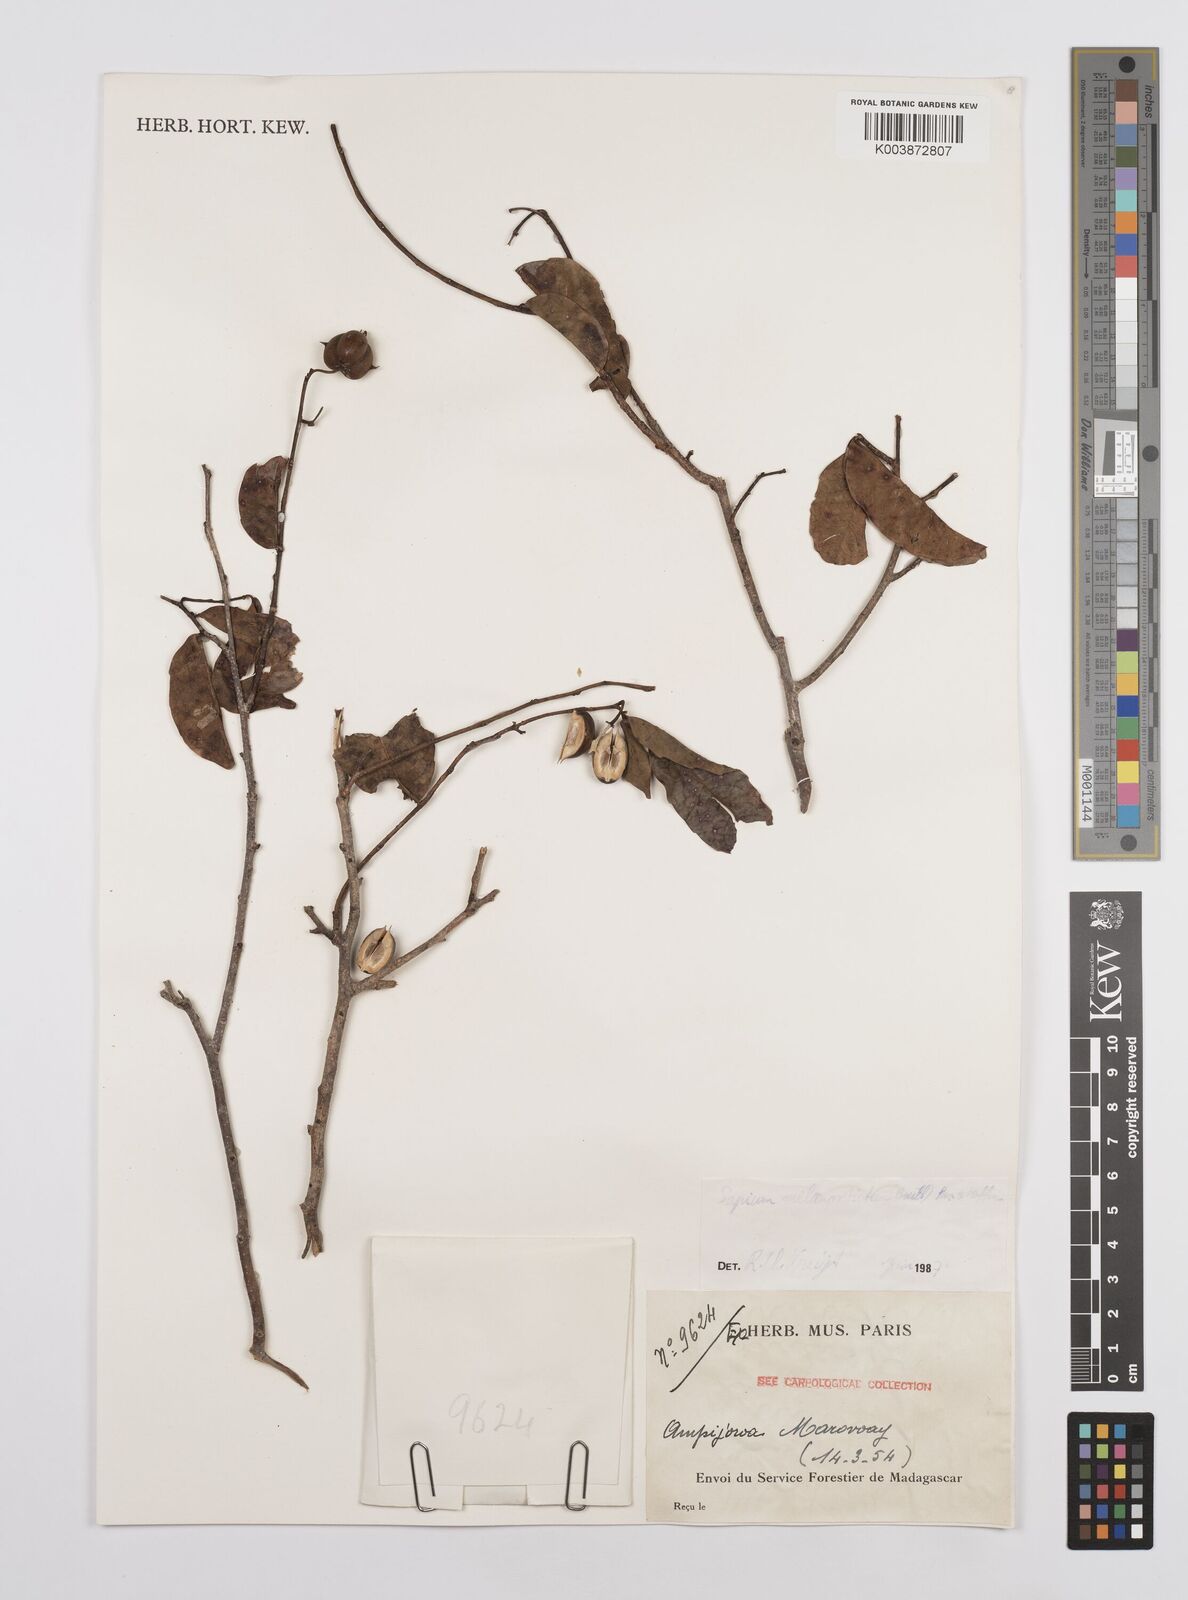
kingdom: Plantae
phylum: Tracheophyta
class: Magnoliopsida
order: Malpighiales
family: Euphorbiaceae
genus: Sclerocroton
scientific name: Sclerocroton melanostictus
